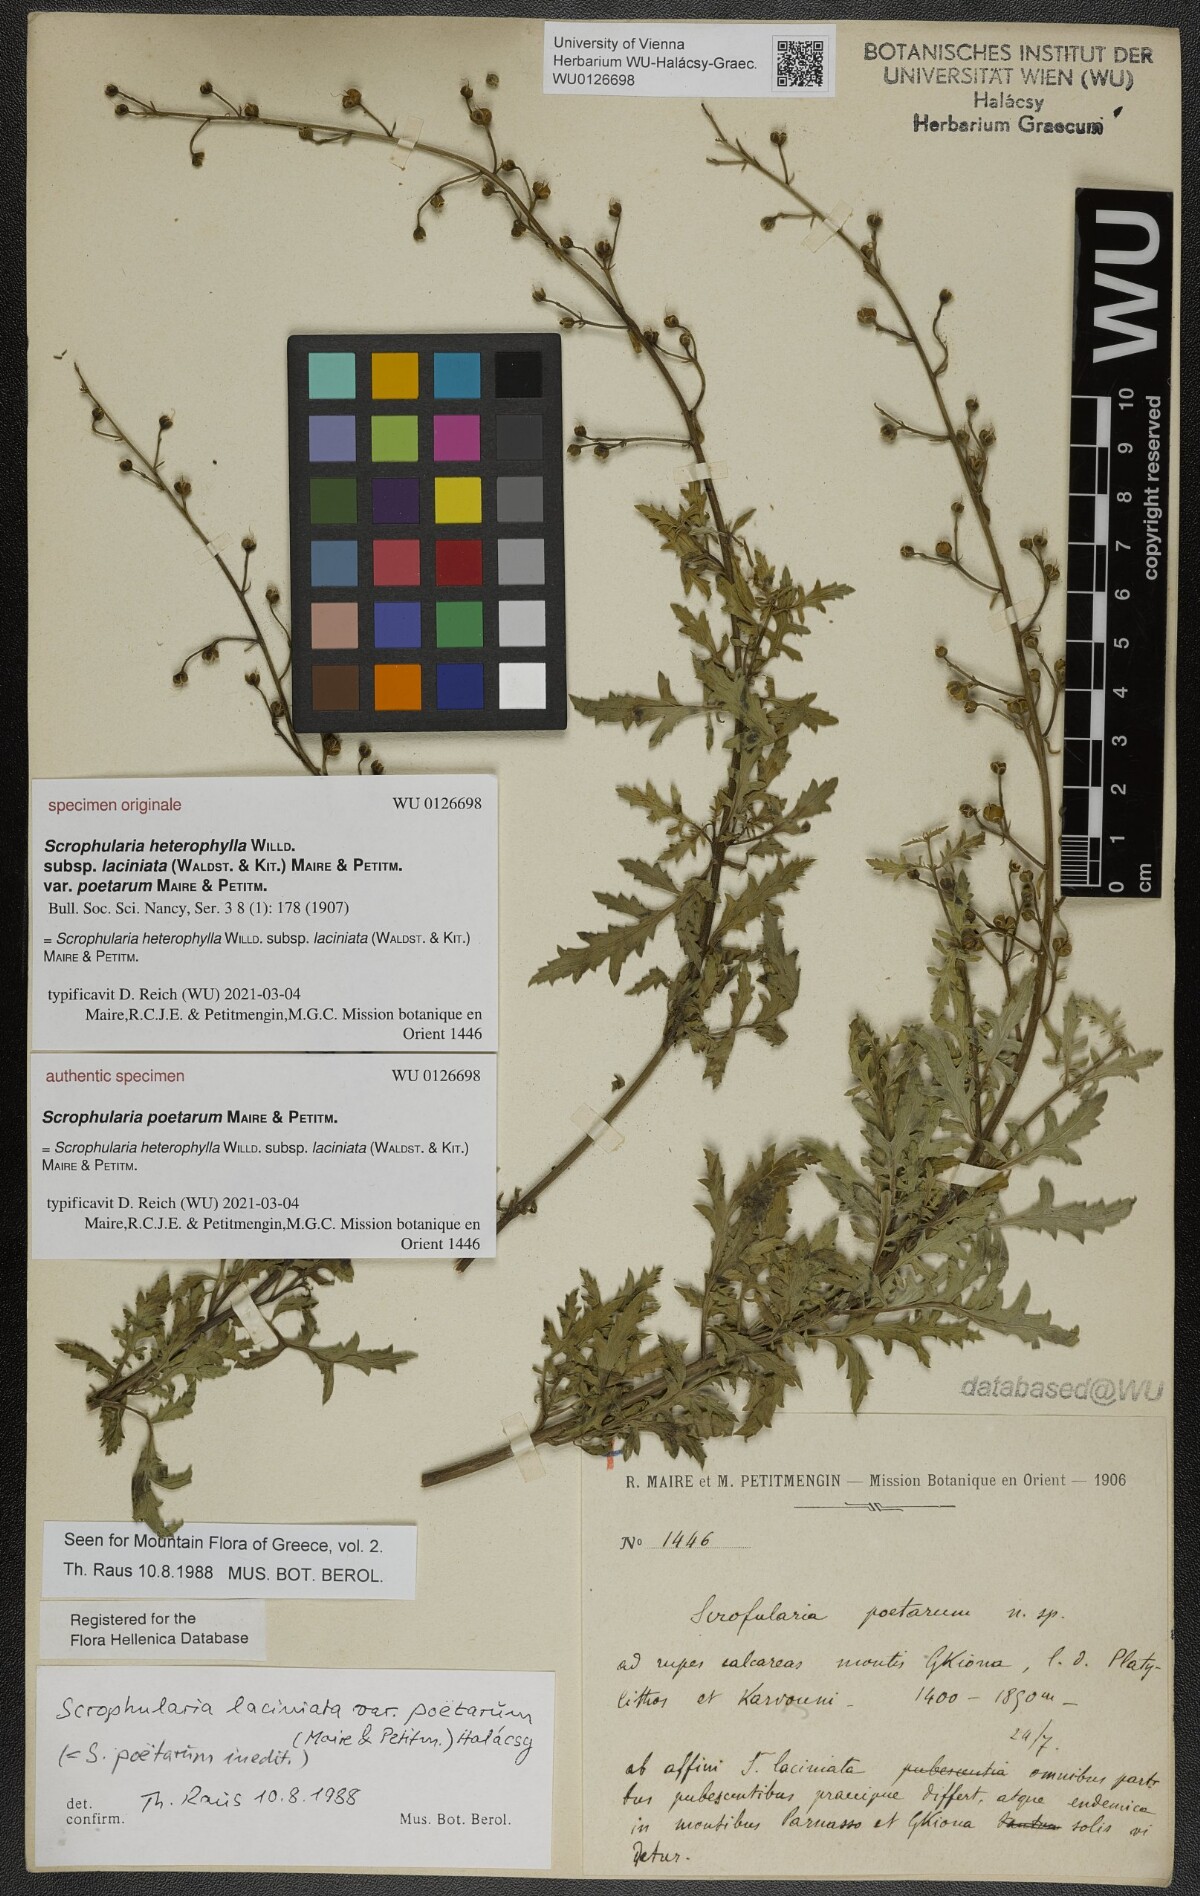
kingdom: Plantae
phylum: Tracheophyta
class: Magnoliopsida
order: Lamiales
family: Scrophulariaceae
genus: Scrophularia
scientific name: Scrophularia heterophylla
